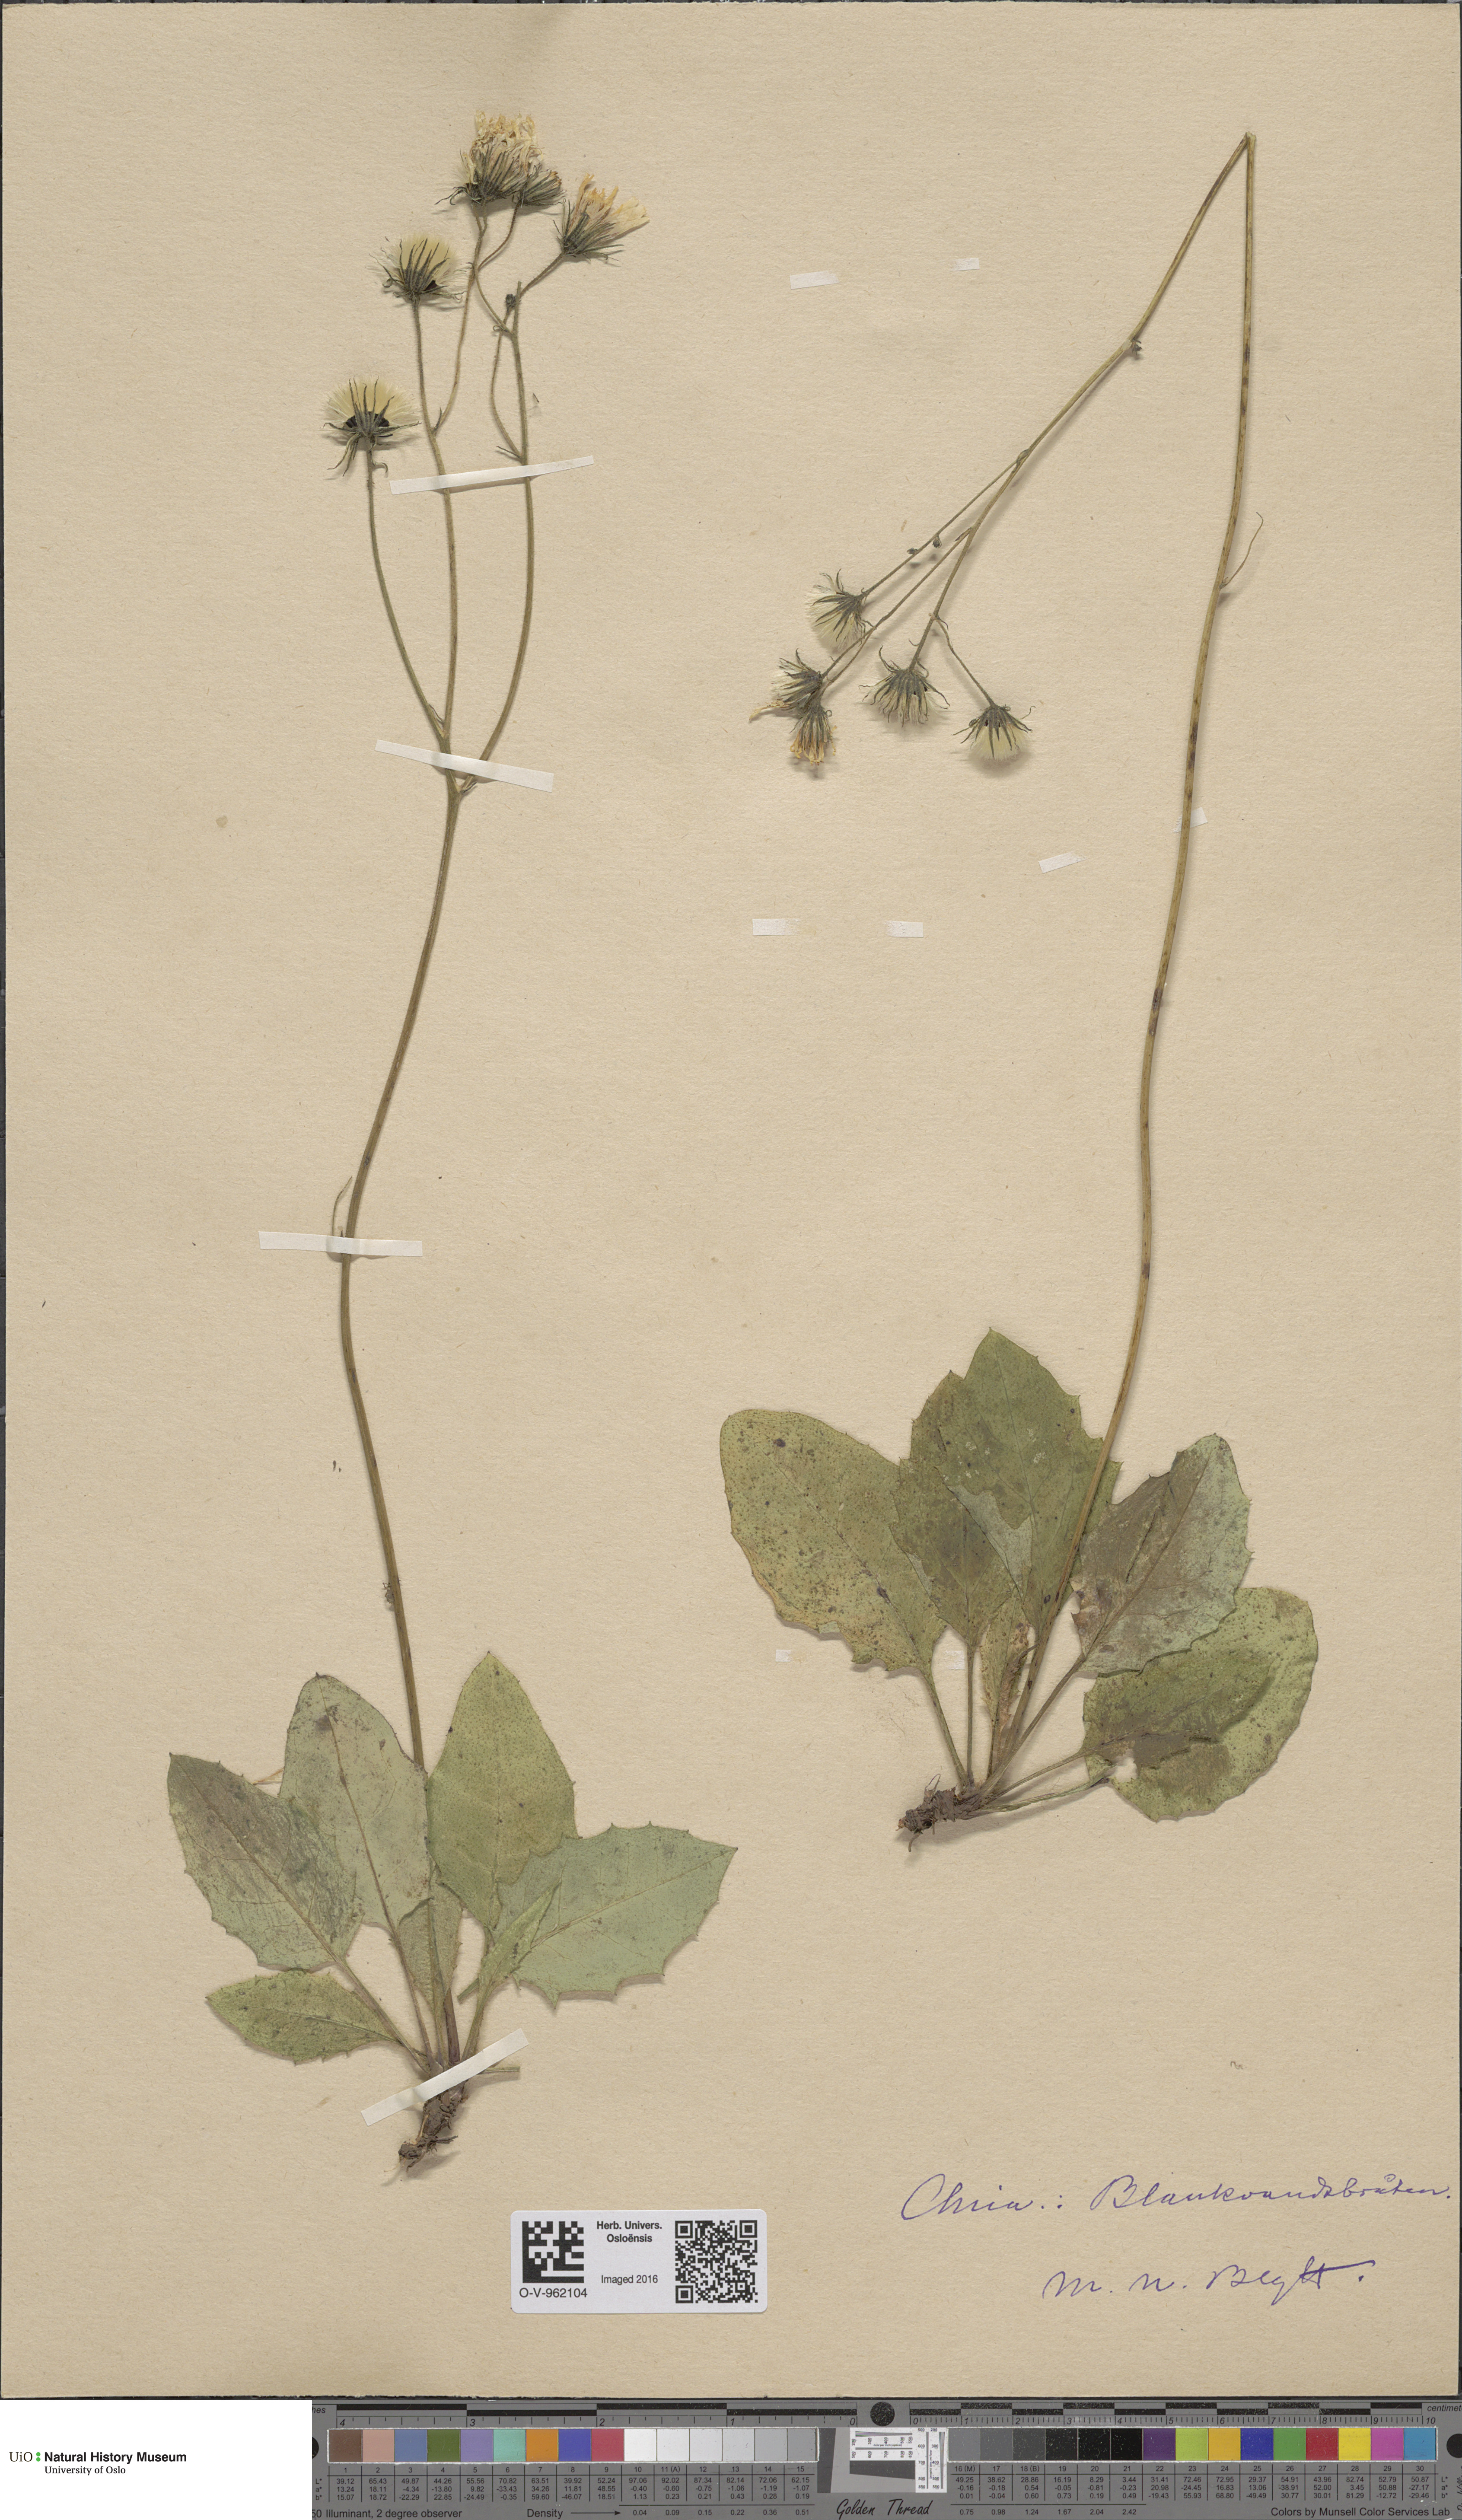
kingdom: Plantae
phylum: Tracheophyta
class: Magnoliopsida
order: Asterales
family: Asteraceae
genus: Hieracium
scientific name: Hieracium
